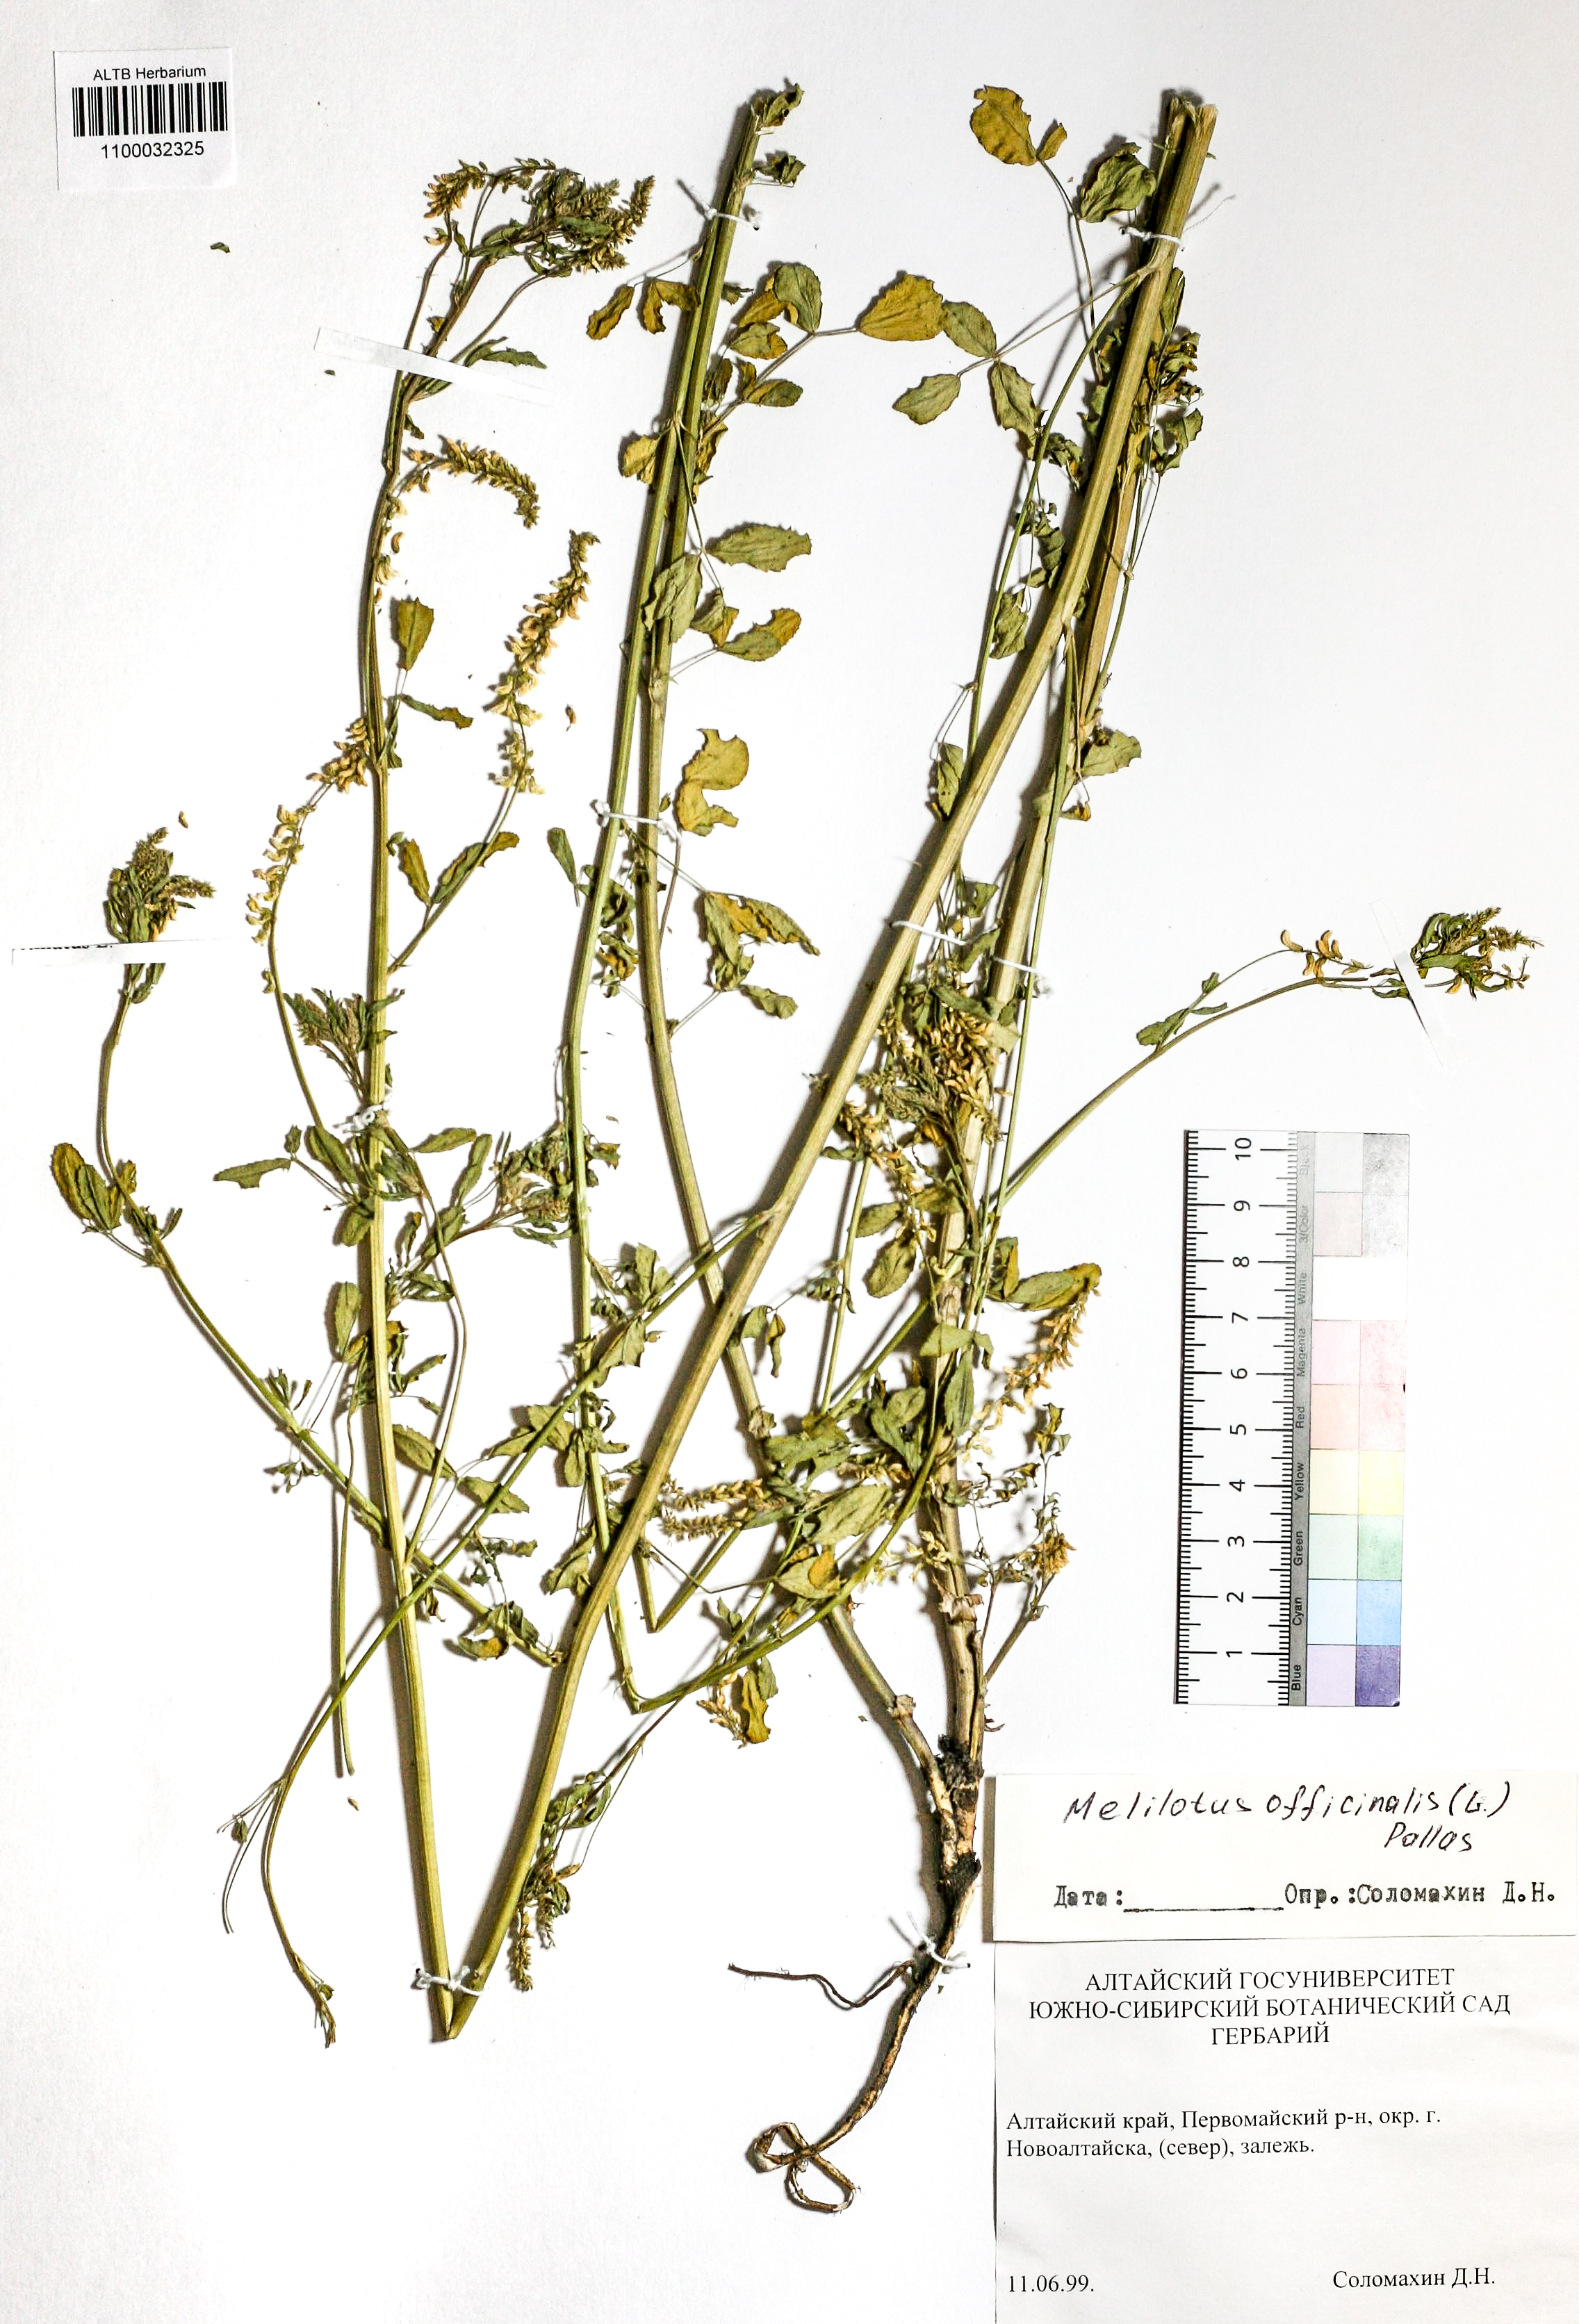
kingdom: Plantae
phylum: Tracheophyta
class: Magnoliopsida
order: Fabales
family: Fabaceae
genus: Melilotus
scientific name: Melilotus officinalis
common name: Sweetclover
